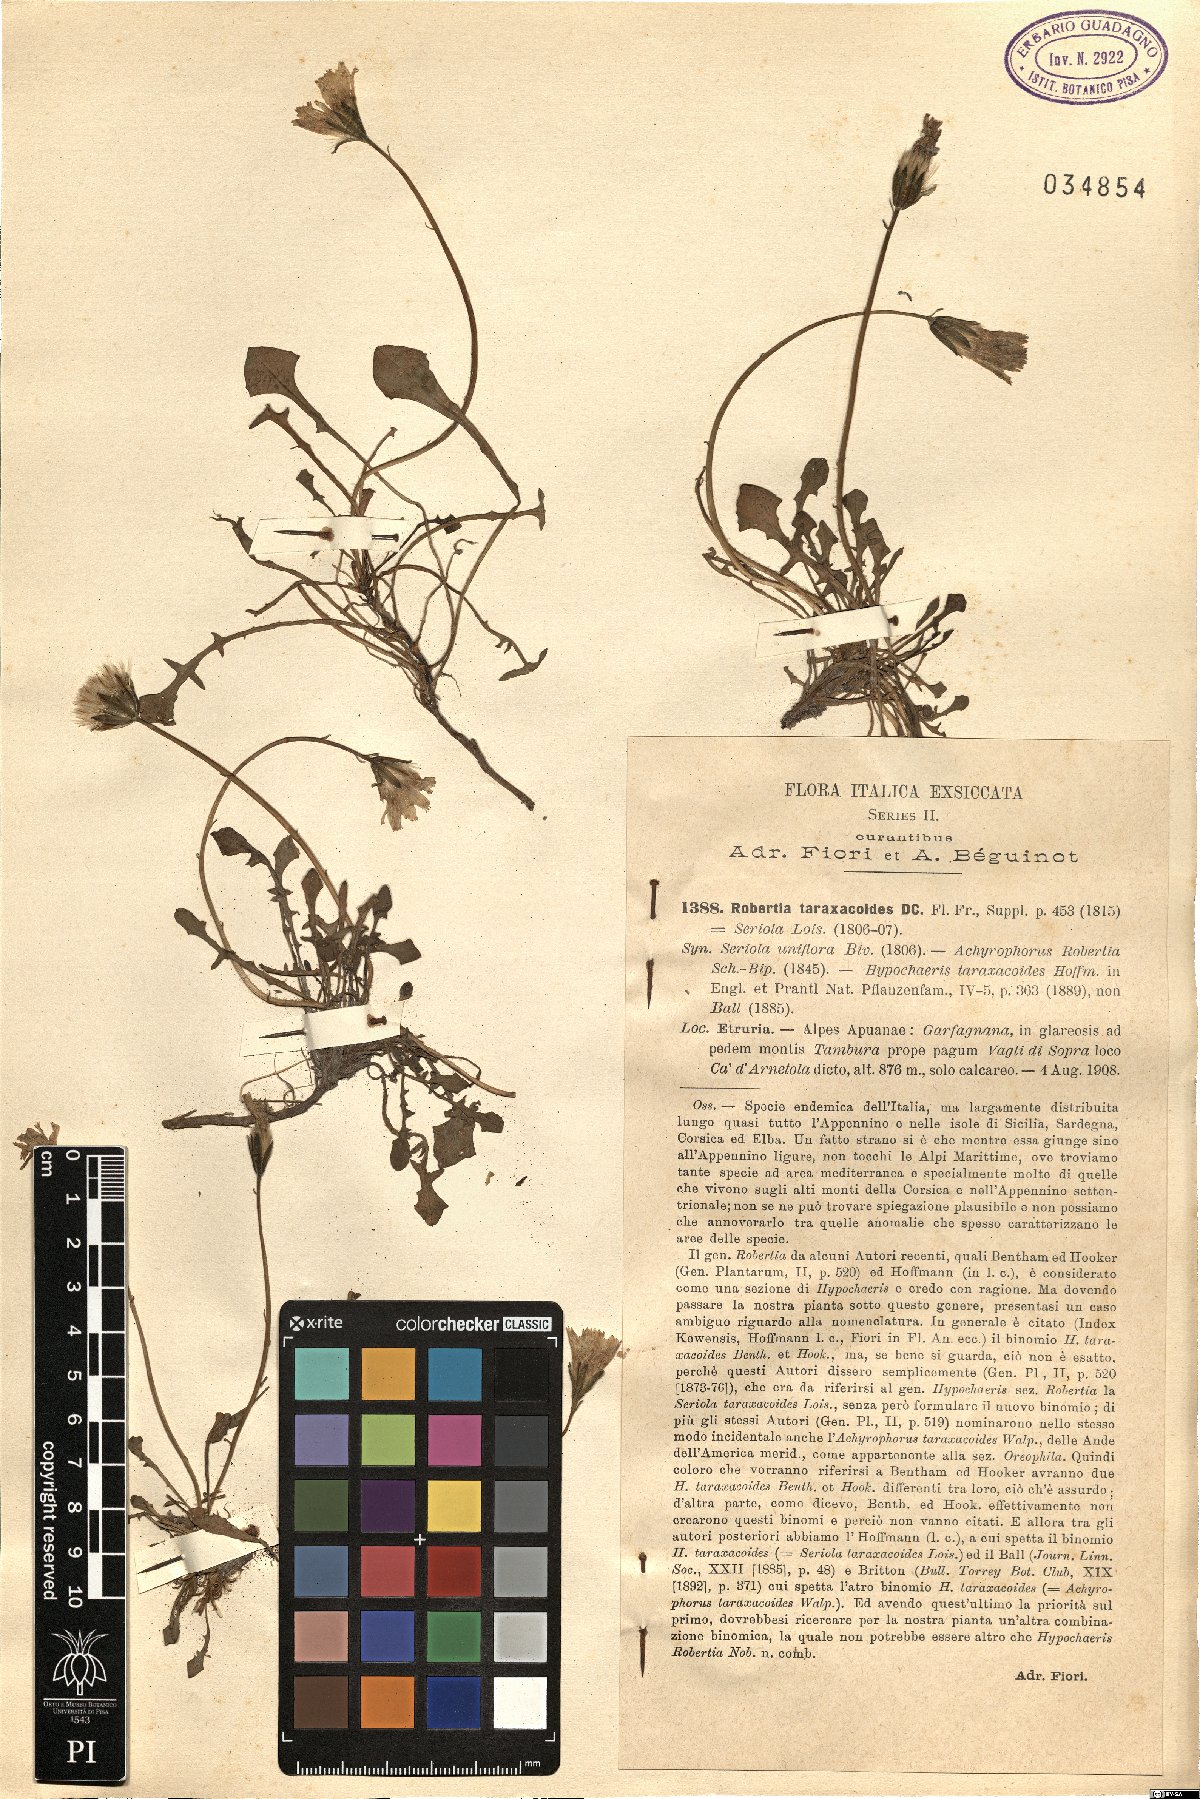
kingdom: Plantae
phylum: Tracheophyta
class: Magnoliopsida
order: Asterales
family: Asteraceae
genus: Hypochaeris
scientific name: Hypochaeris robertia
